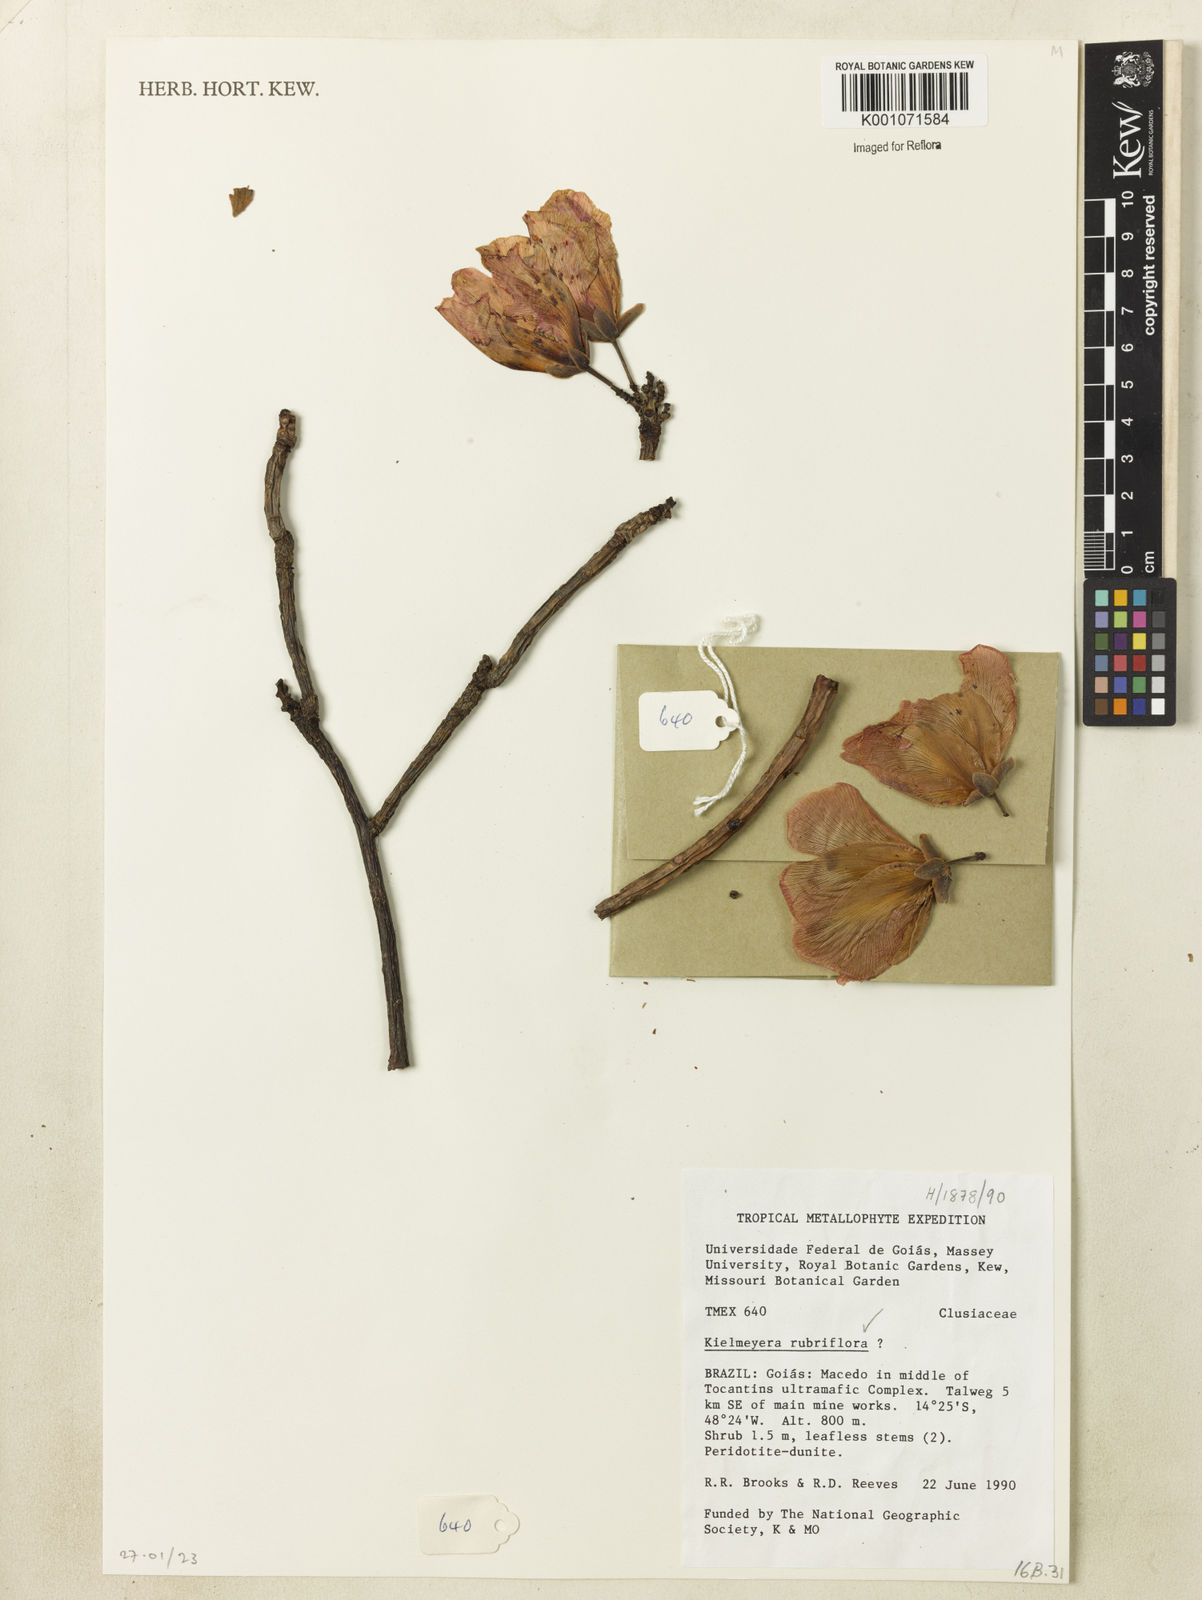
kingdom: Plantae
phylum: Tracheophyta
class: Magnoliopsida
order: Malpighiales
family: Calophyllaceae
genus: Kielmeyera
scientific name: Kielmeyera rubriflora
